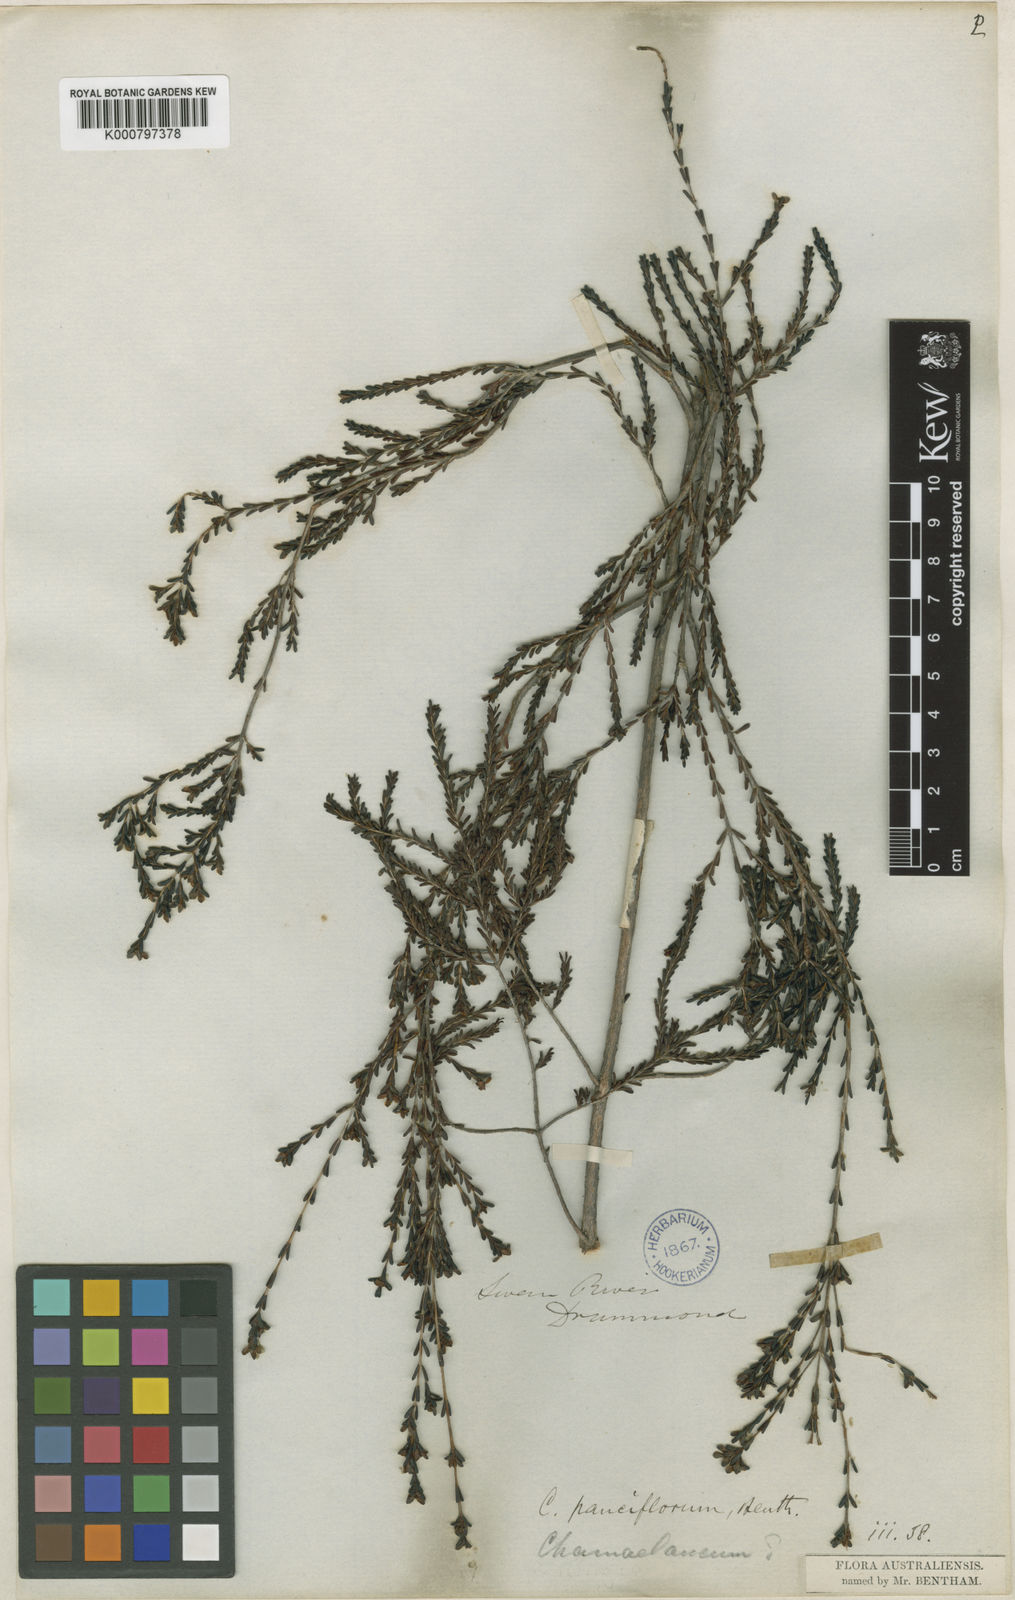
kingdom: Plantae
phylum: Tracheophyta
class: Magnoliopsida
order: Myrtales
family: Myrtaceae
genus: Chamelaucium
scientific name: Chamelaucium pauciflorum
